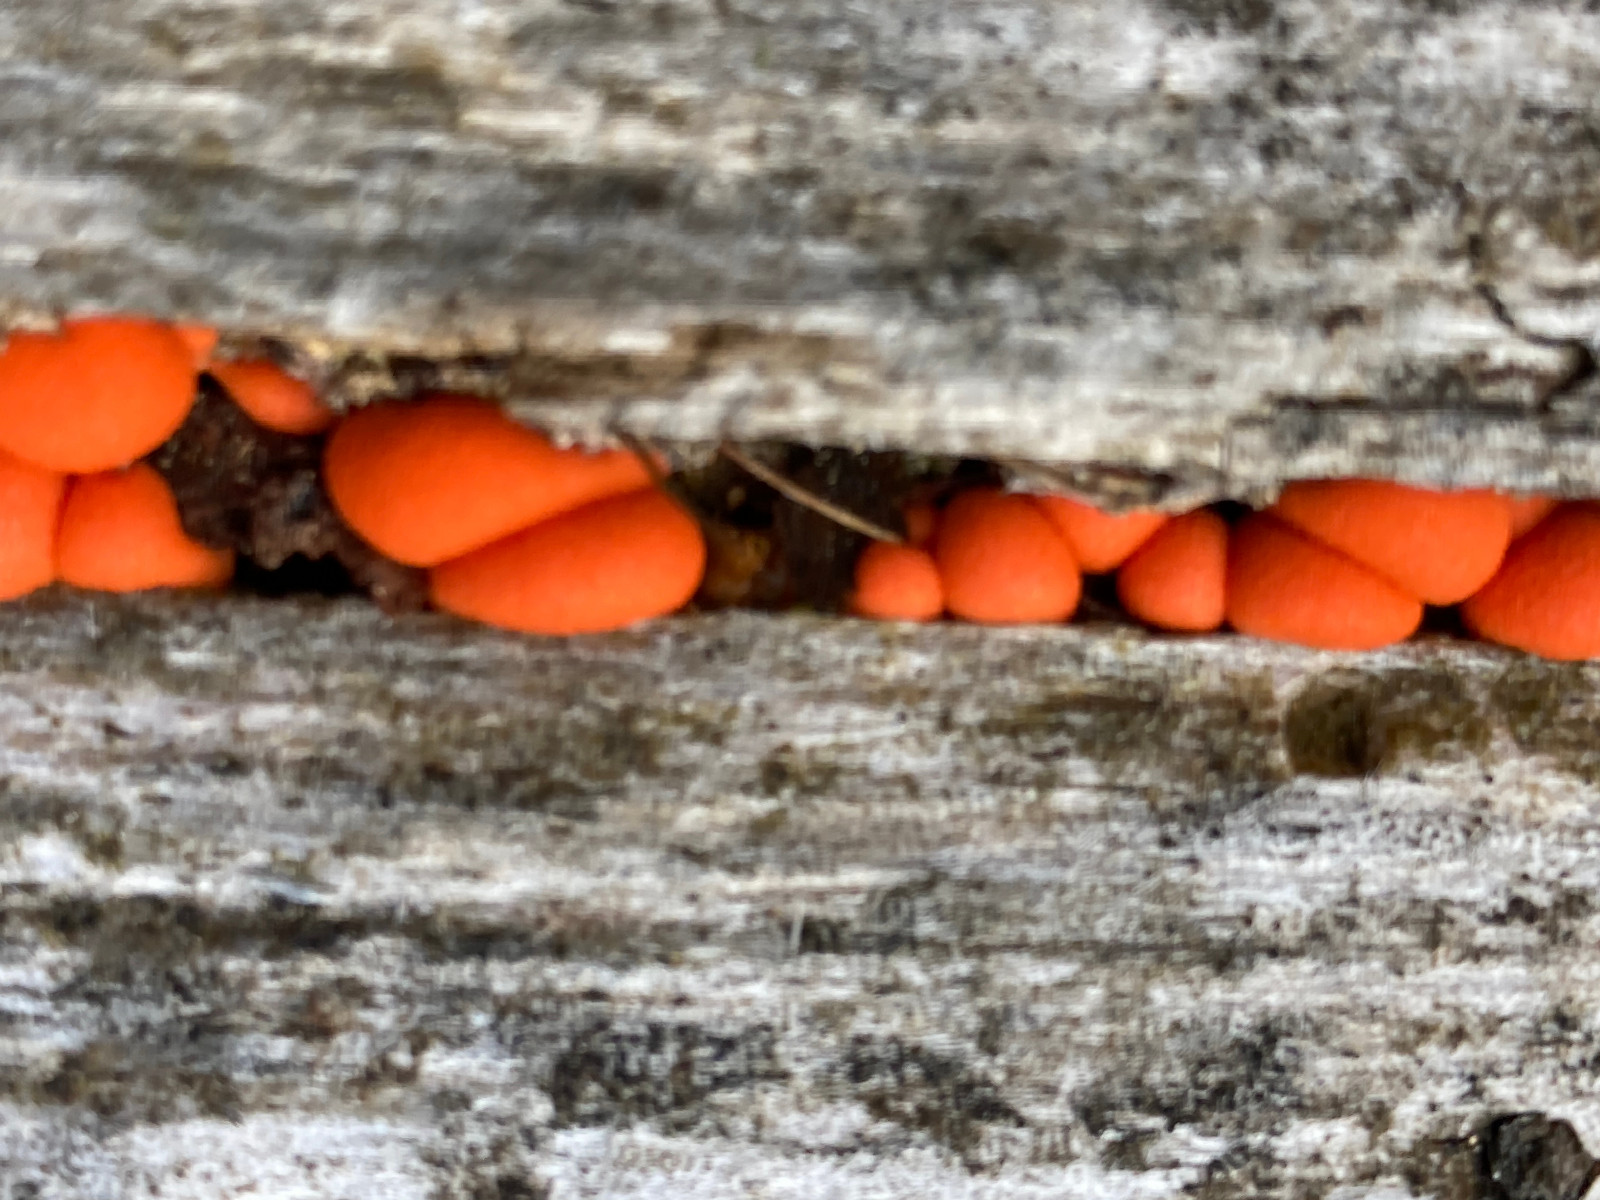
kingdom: Protozoa
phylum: Mycetozoa
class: Myxomycetes
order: Cribrariales
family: Tubiferaceae
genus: Lycogala
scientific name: Lycogala epidendrum
